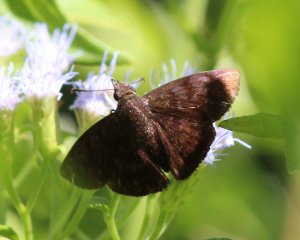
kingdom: Animalia
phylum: Arthropoda
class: Insecta
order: Lepidoptera
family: Hesperiidae
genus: Pellicia
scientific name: Pellicia costimacula
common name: Glazed Pellicia
